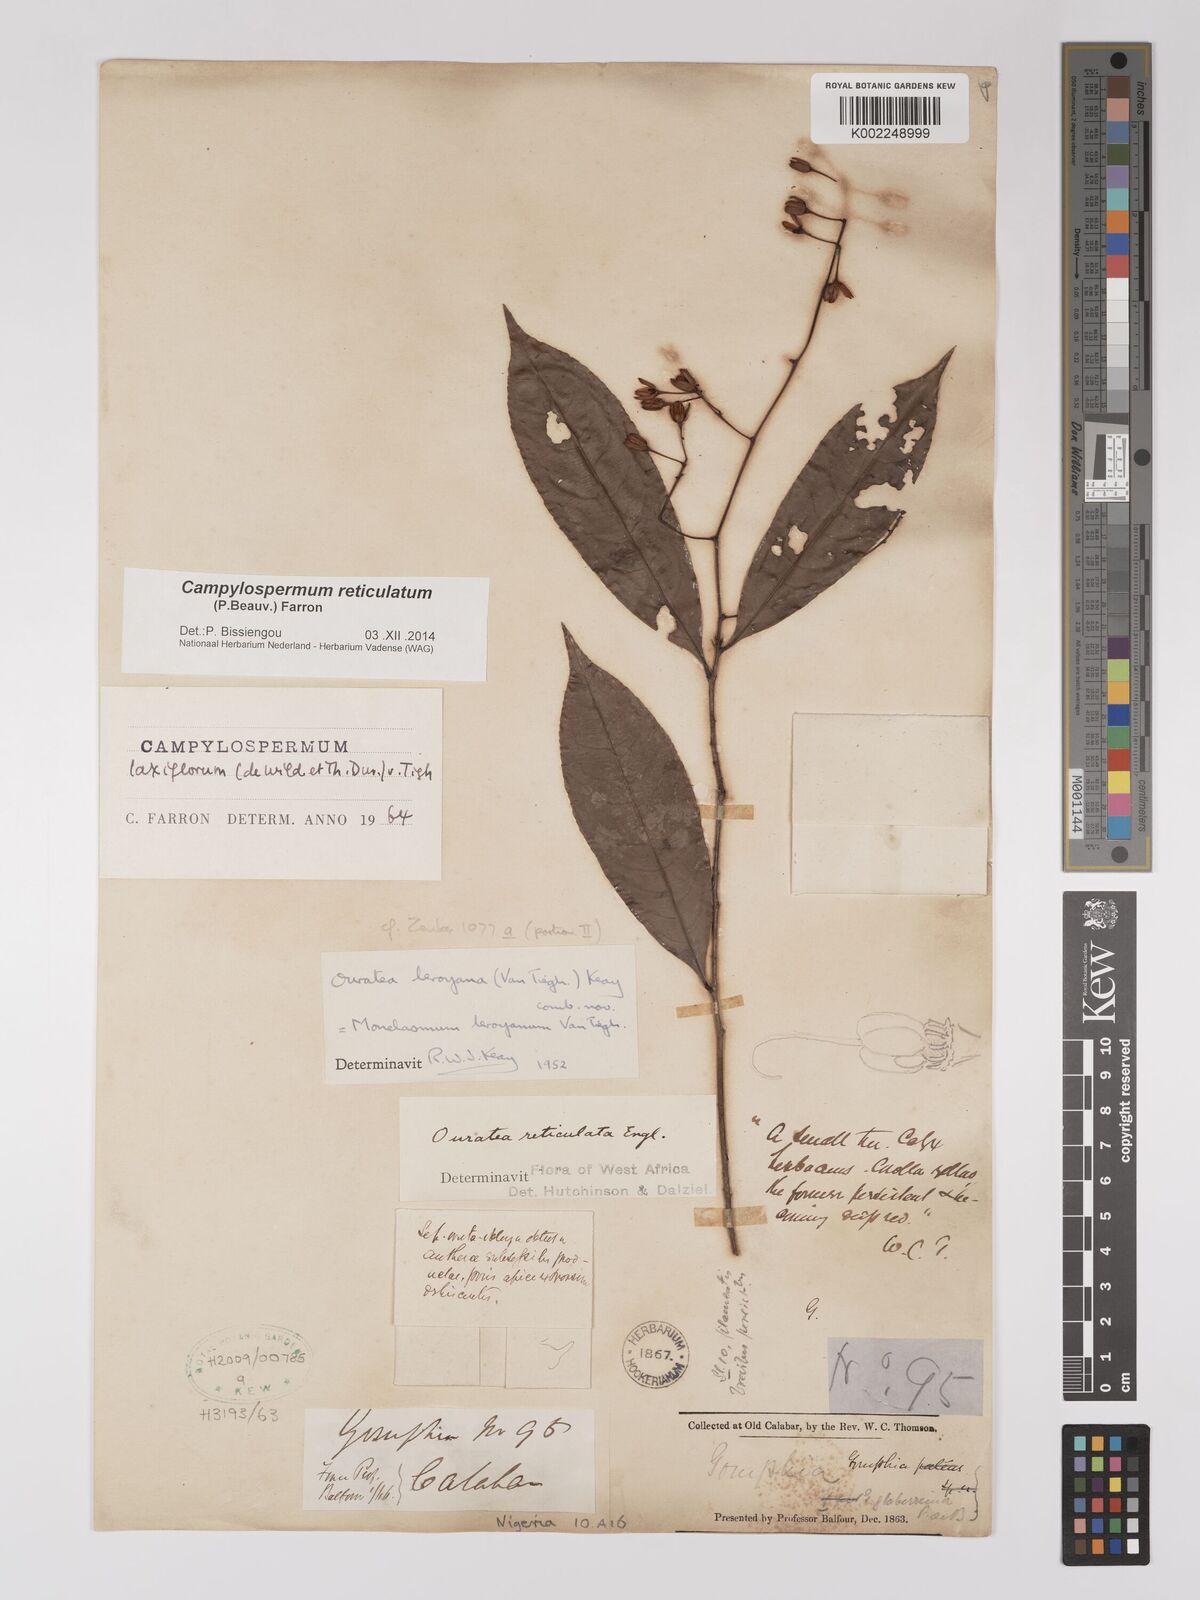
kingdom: Plantae
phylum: Tracheophyta
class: Magnoliopsida
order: Malpighiales
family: Ochnaceae
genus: Campylospermum
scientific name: Campylospermum reticulatum
